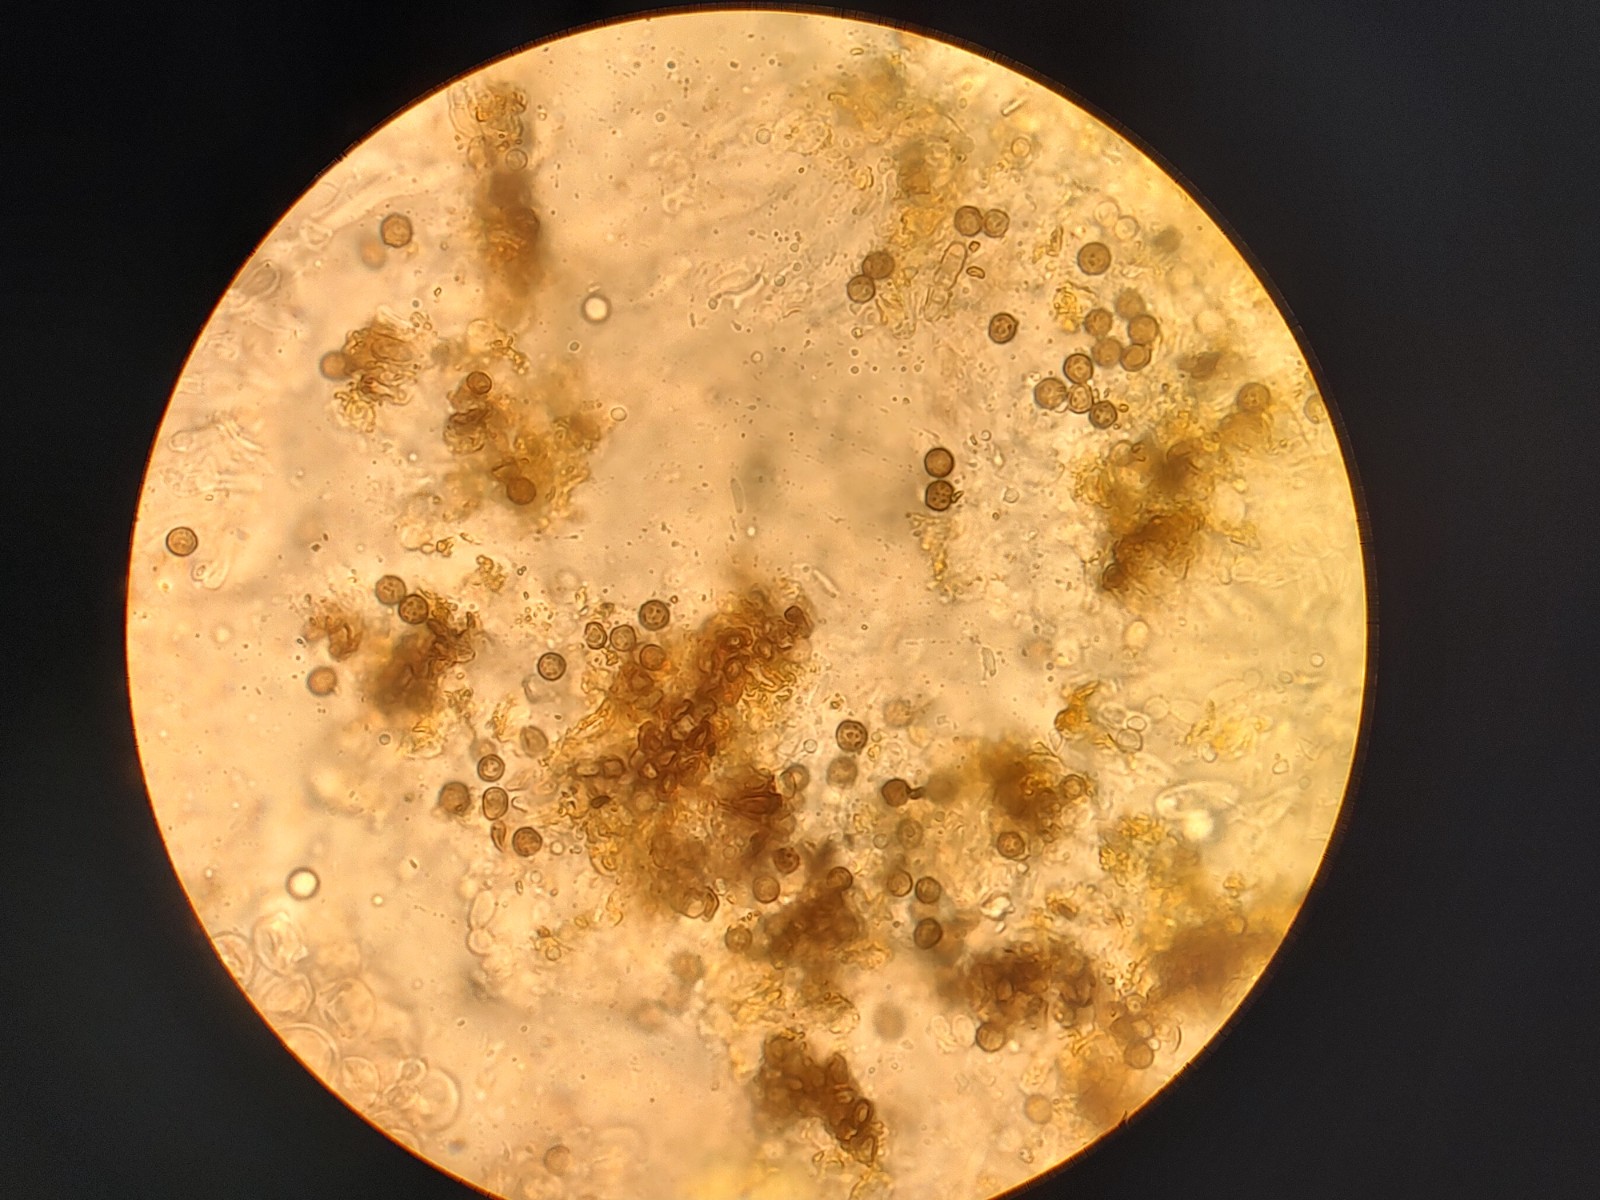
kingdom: Fungi
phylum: Ascomycota
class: Dothideomycetes
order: Mycosphaerellales
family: Teratosphaeriaceae
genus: Xanthoriicola
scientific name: Xanthoriicola physciae
